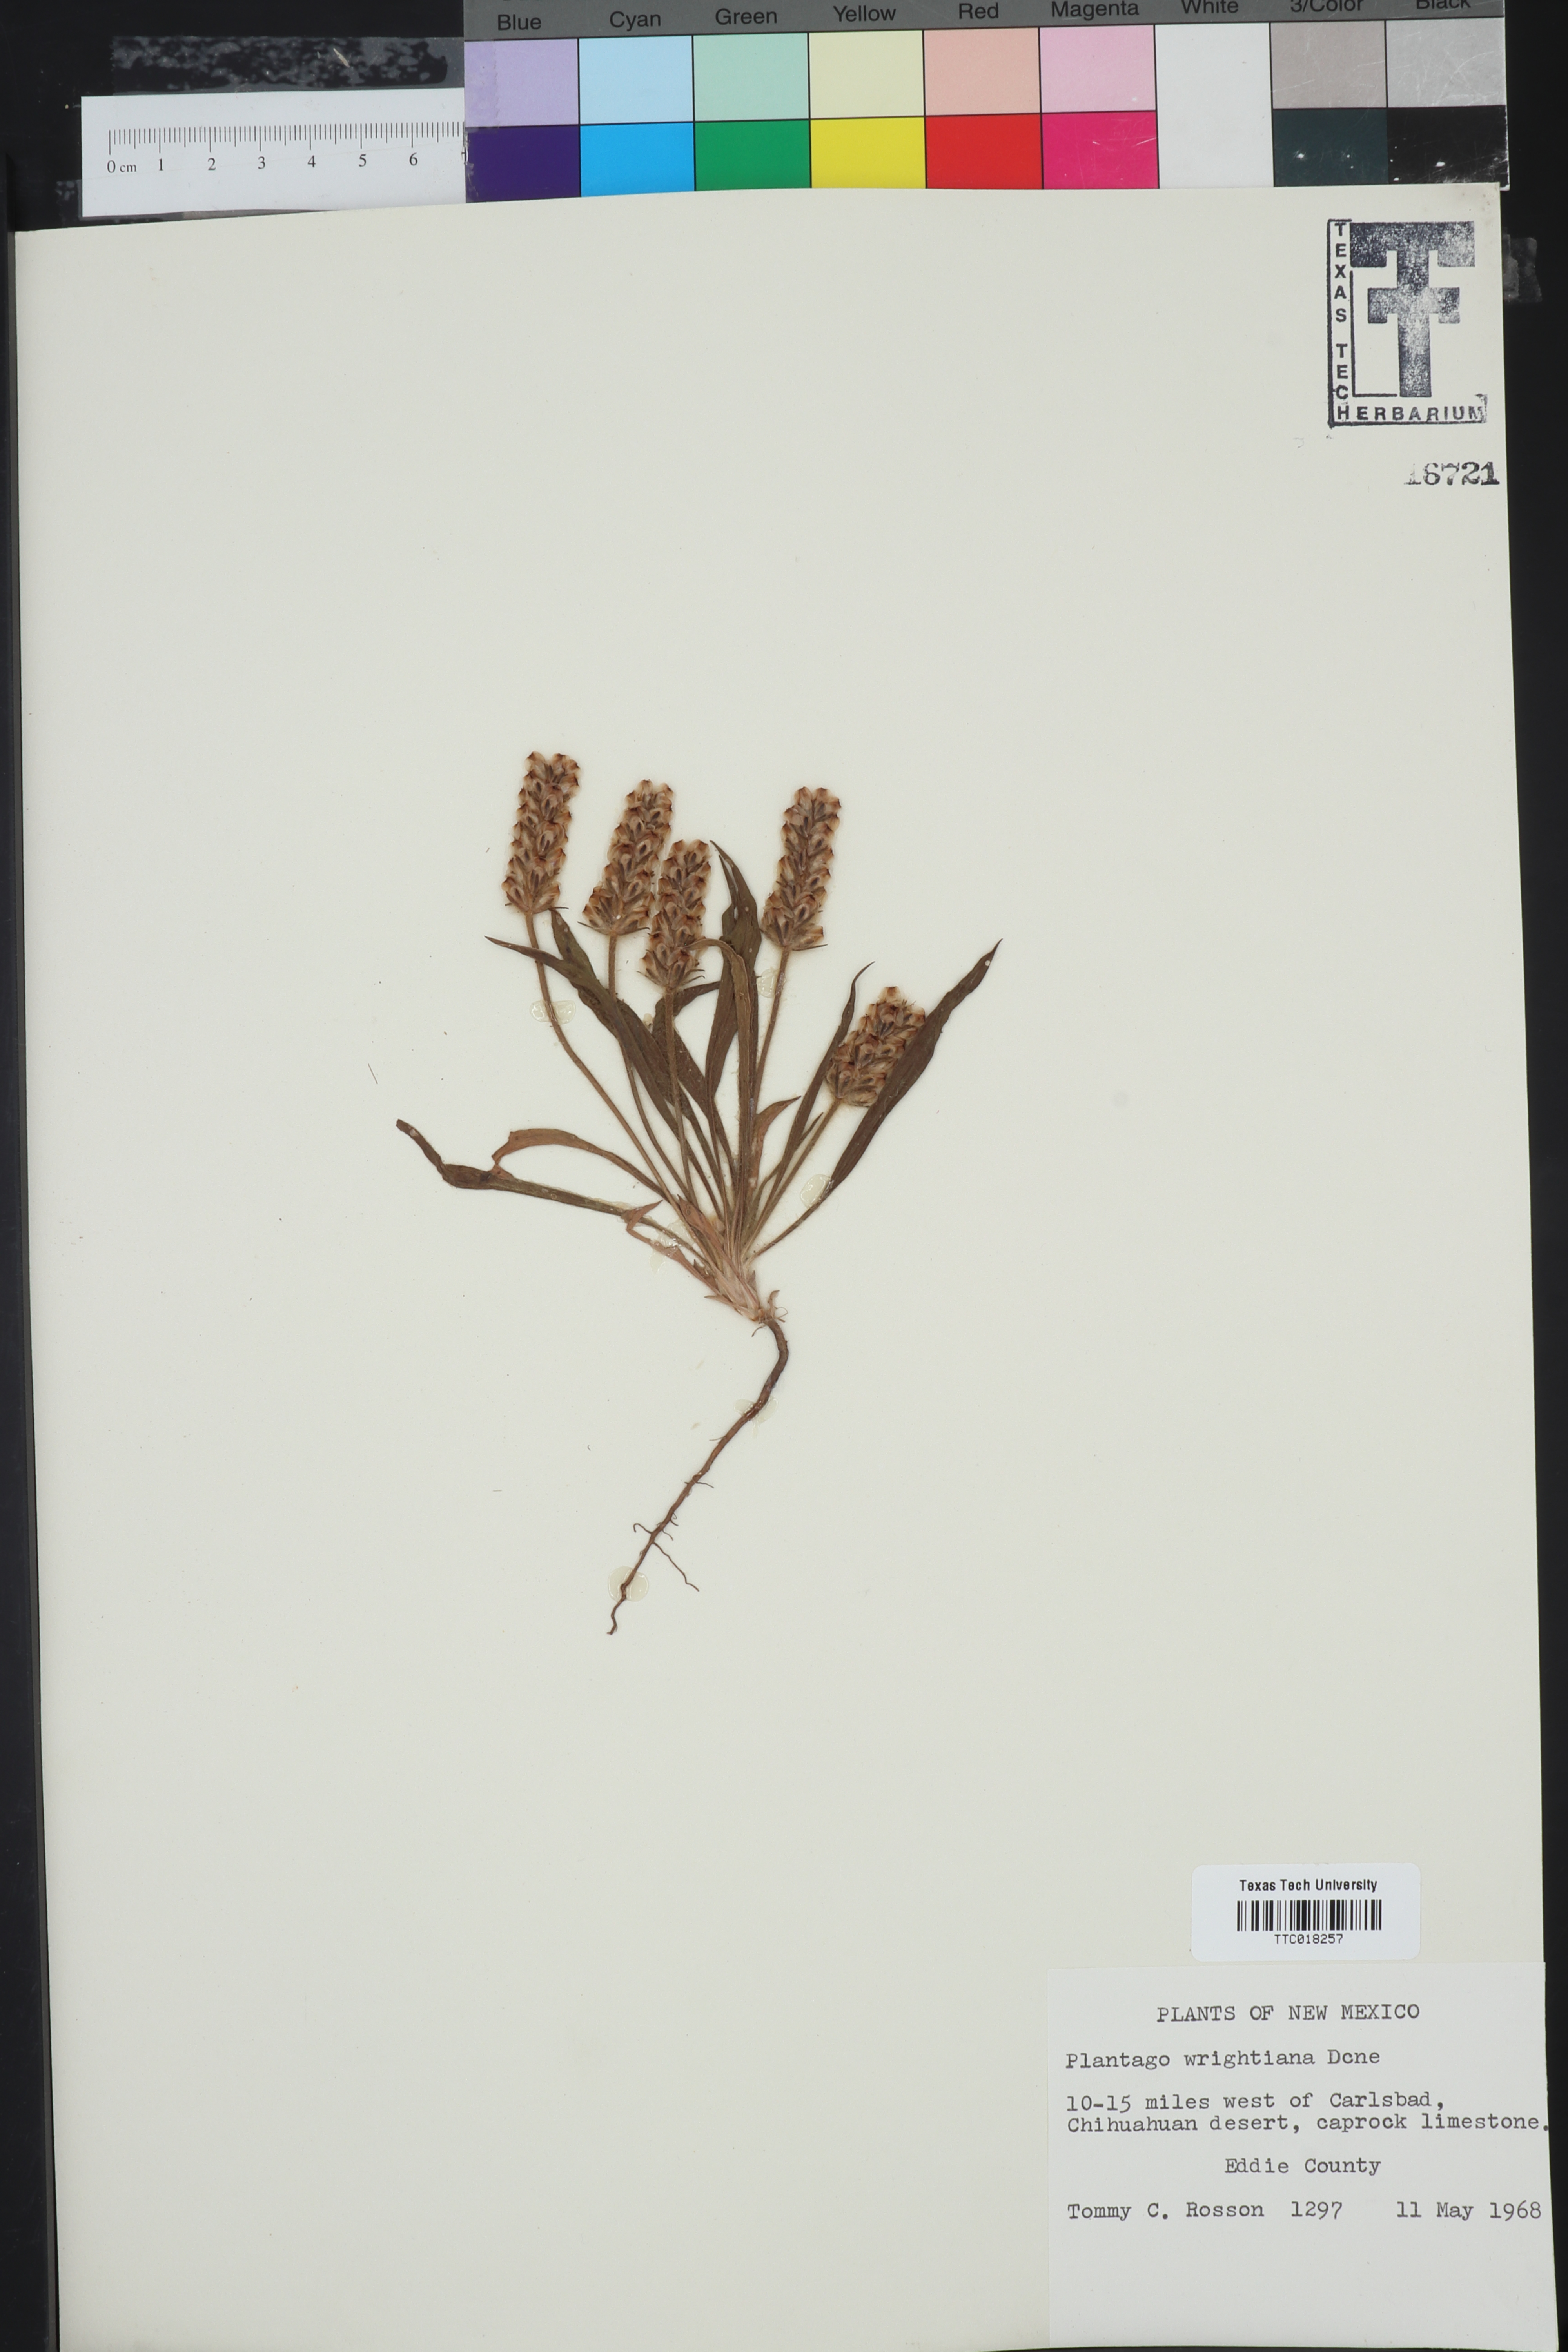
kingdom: Plantae
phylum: Tracheophyta
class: Magnoliopsida
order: Lamiales
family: Plantaginaceae
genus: Plantago
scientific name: Plantago wrightiana
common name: Wright's plantain
